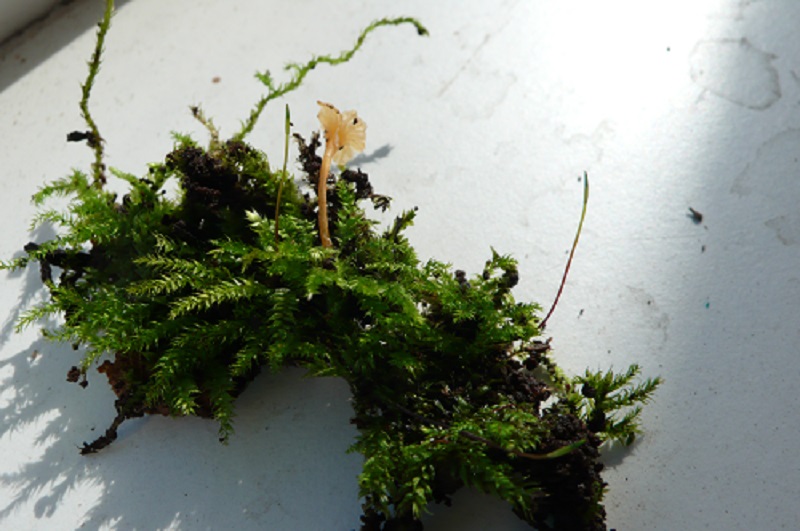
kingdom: Fungi
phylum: Basidiomycota
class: Agaricomycetes
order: Hymenochaetales
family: Rickenellaceae
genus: Rickenella
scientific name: Rickenella fibula
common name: orange mosnavlehat
